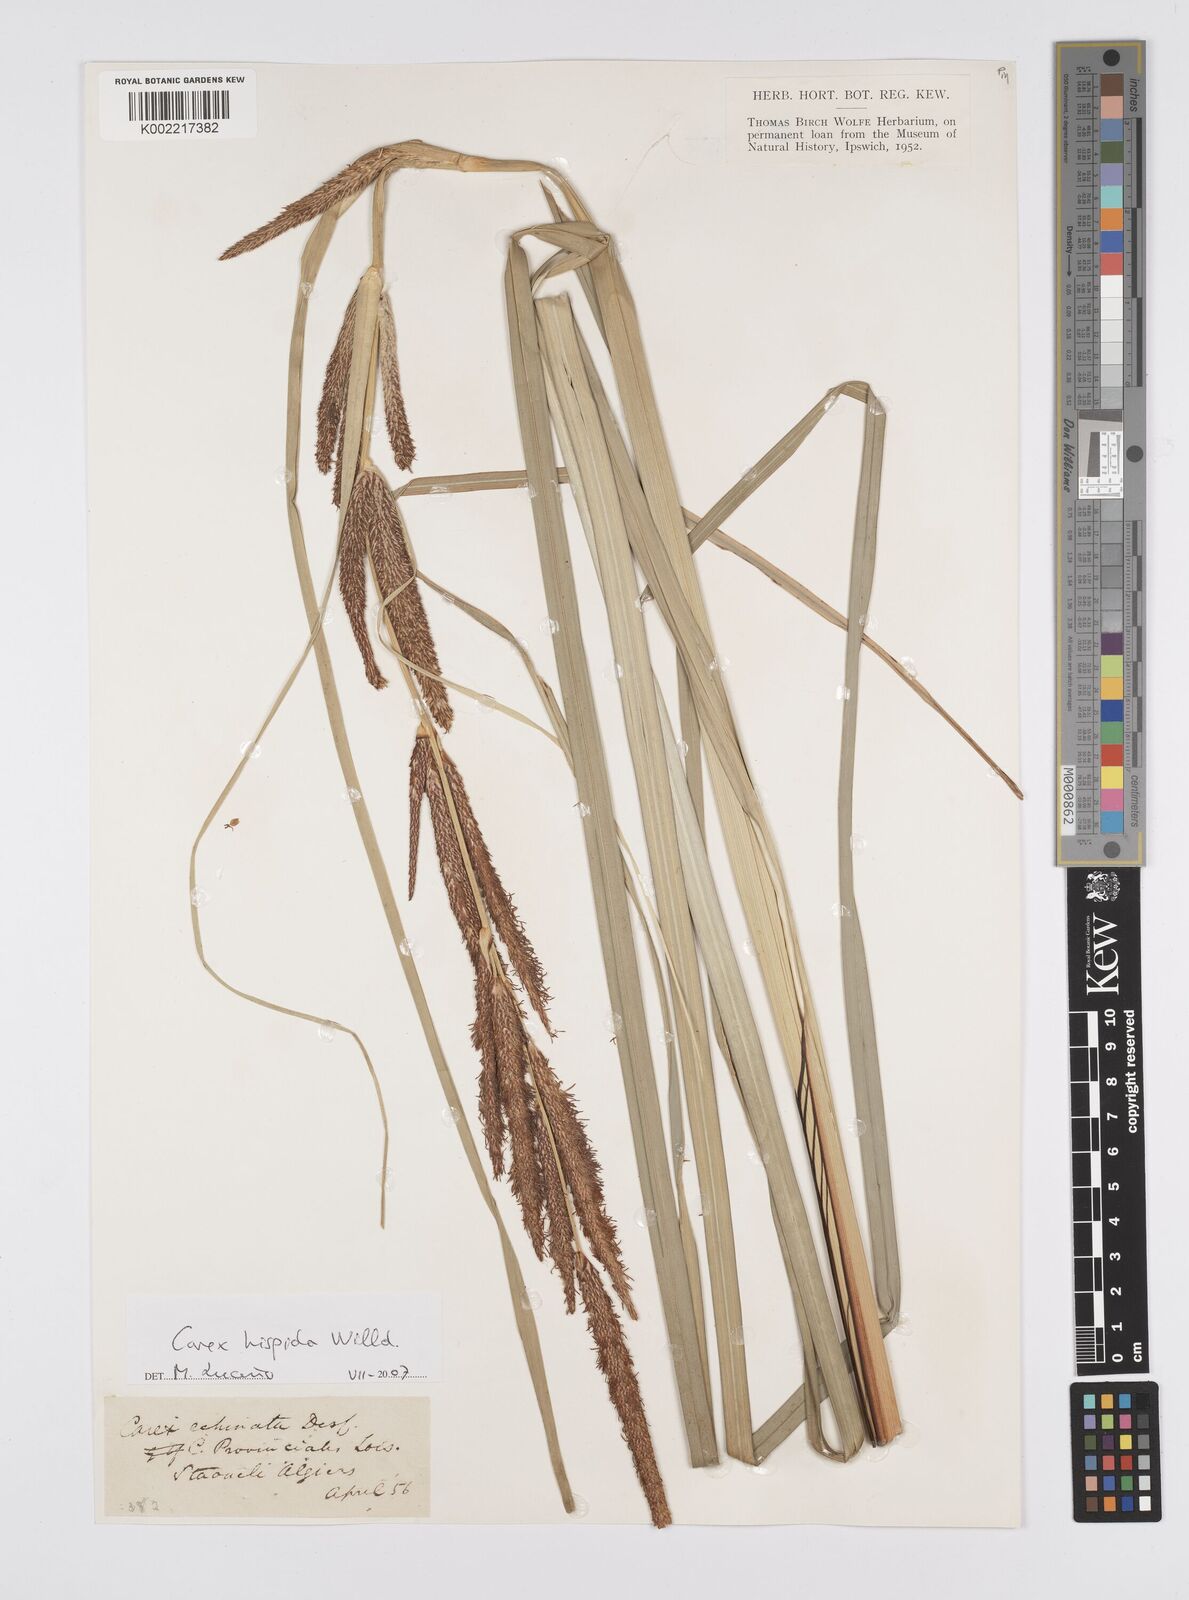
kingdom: Plantae
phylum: Tracheophyta
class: Liliopsida
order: Poales
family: Cyperaceae
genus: Carex
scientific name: Carex hispida
